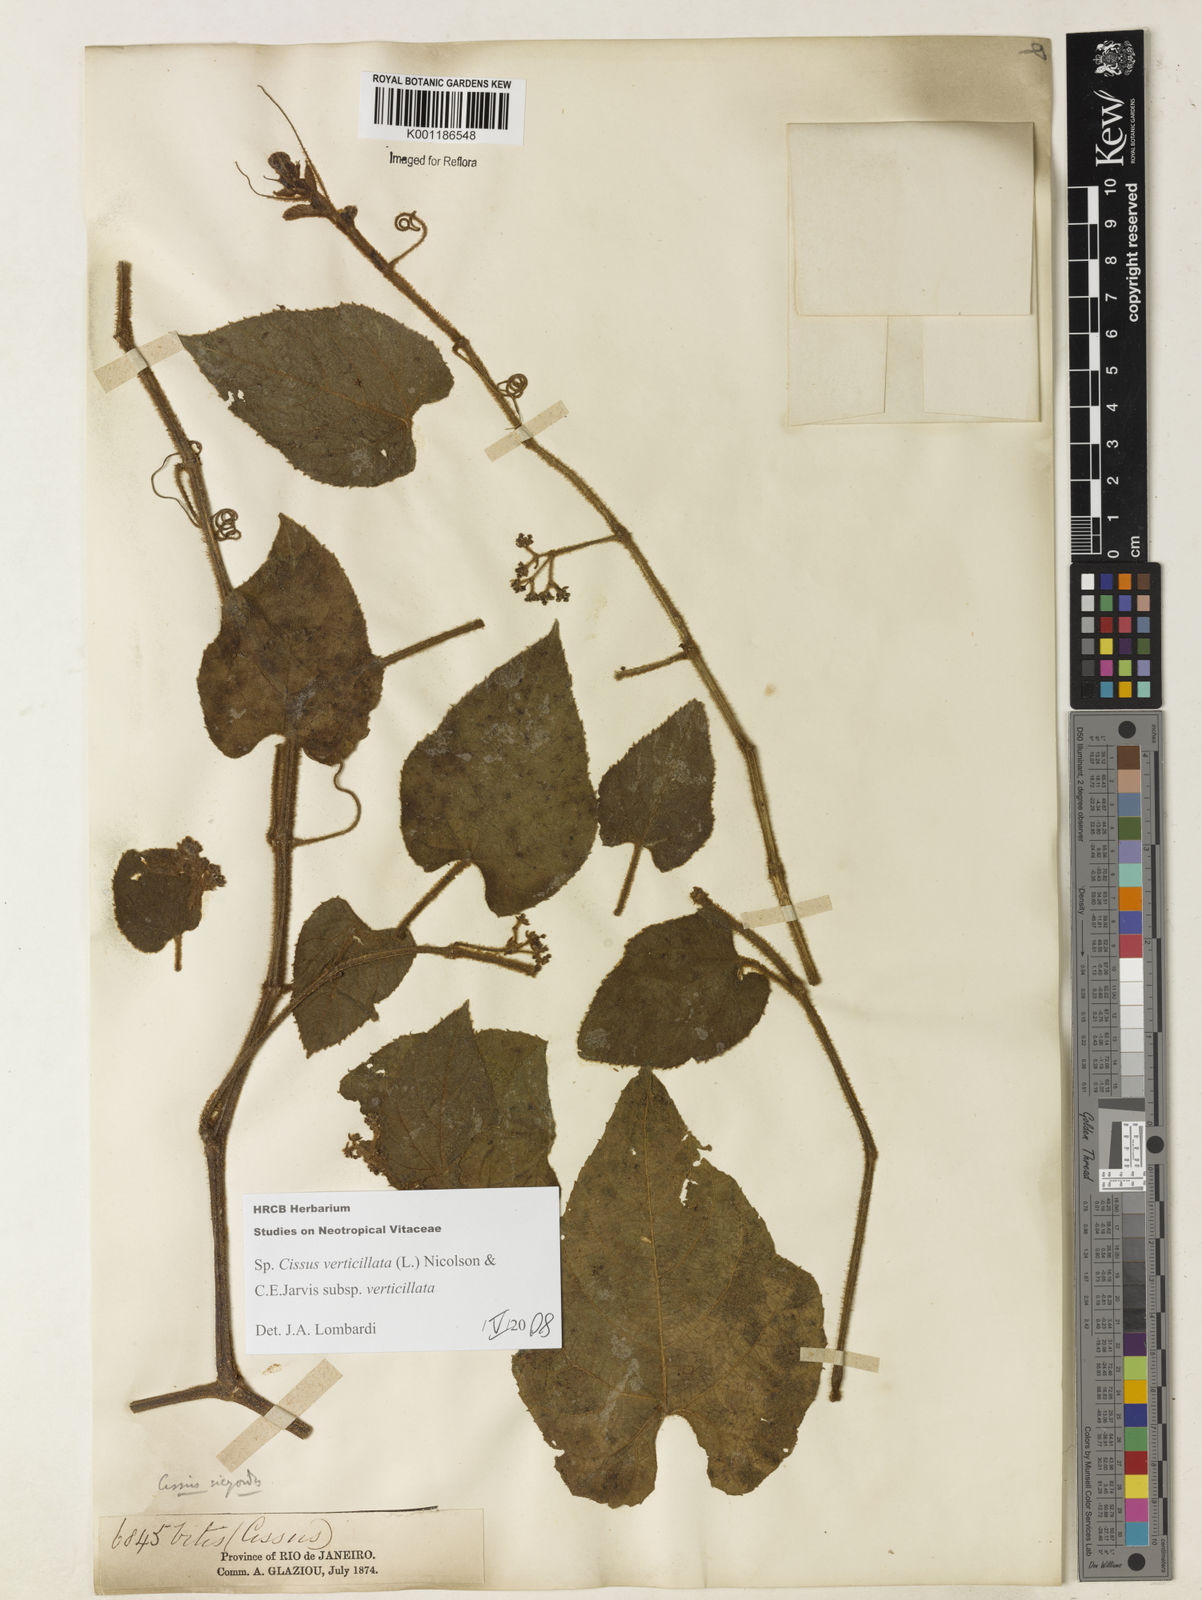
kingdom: Plantae
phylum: Tracheophyta
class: Magnoliopsida
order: Vitales
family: Vitaceae
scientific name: Vitaceae
